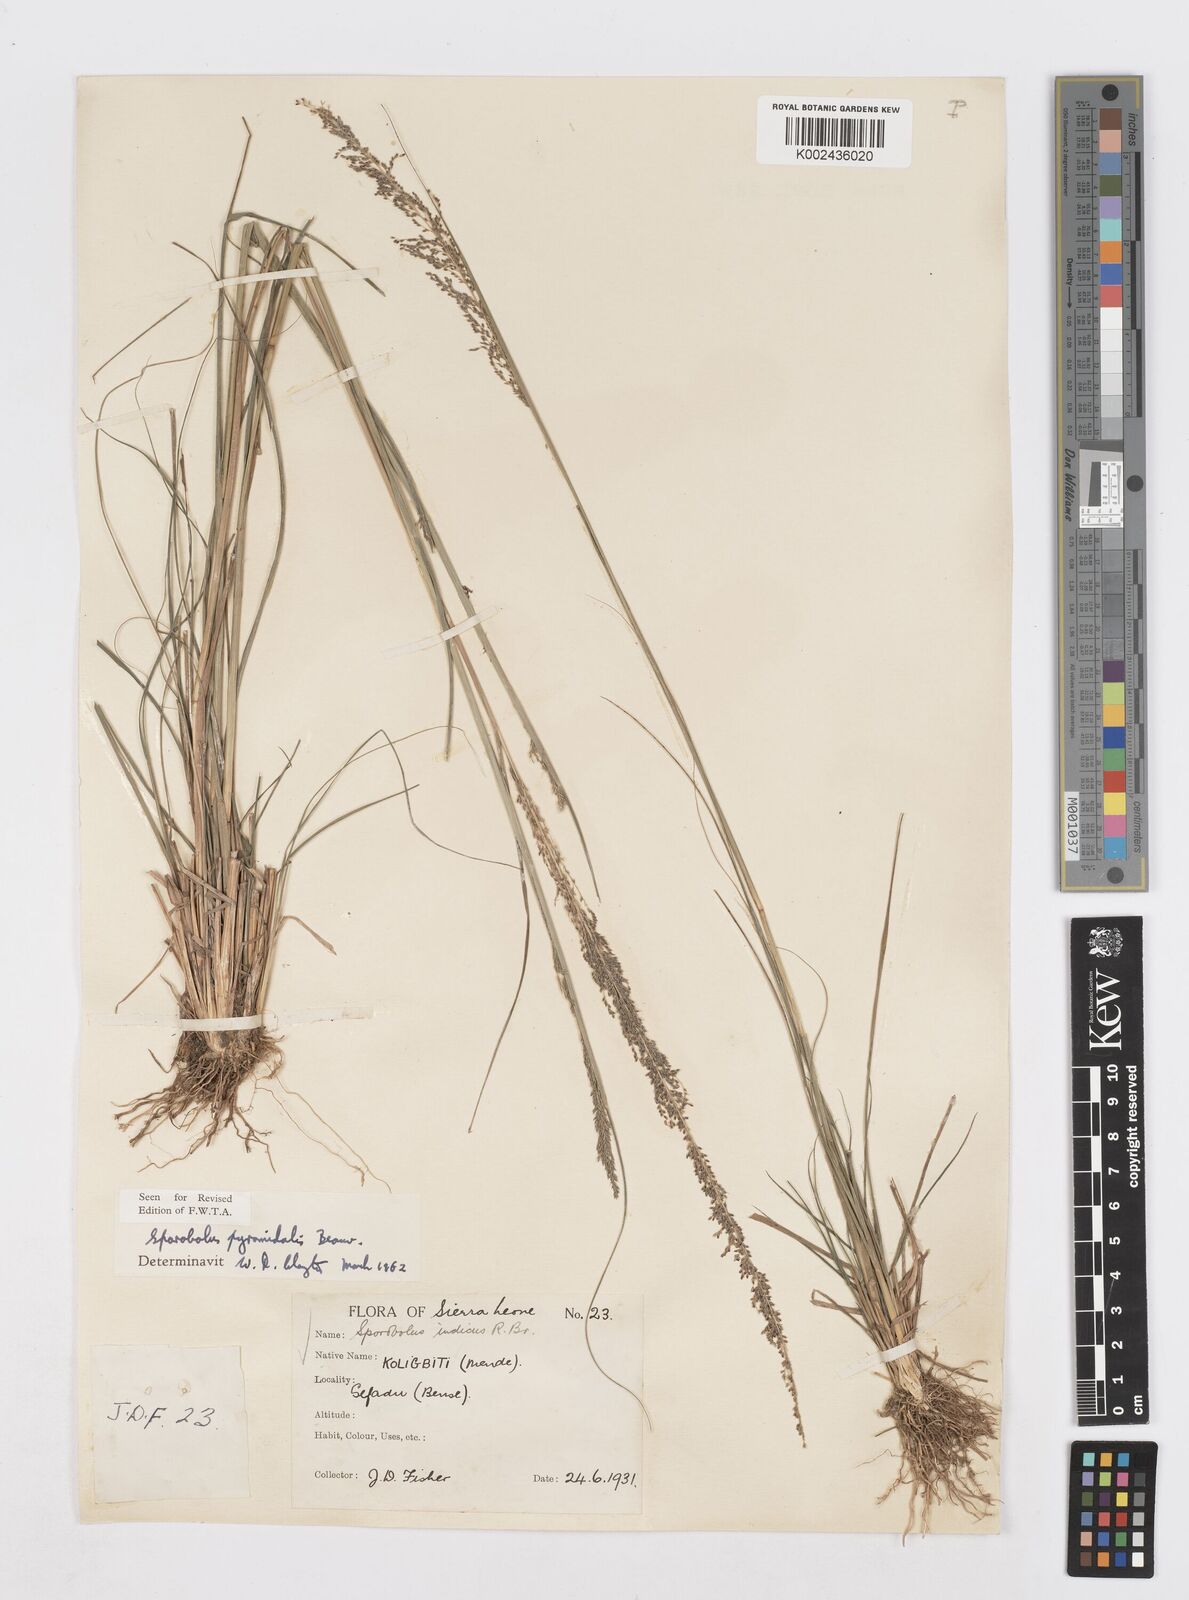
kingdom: Plantae
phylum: Tracheophyta
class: Liliopsida
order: Poales
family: Poaceae
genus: Sporobolus
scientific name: Sporobolus pyramidalis
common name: West indian dropseed
